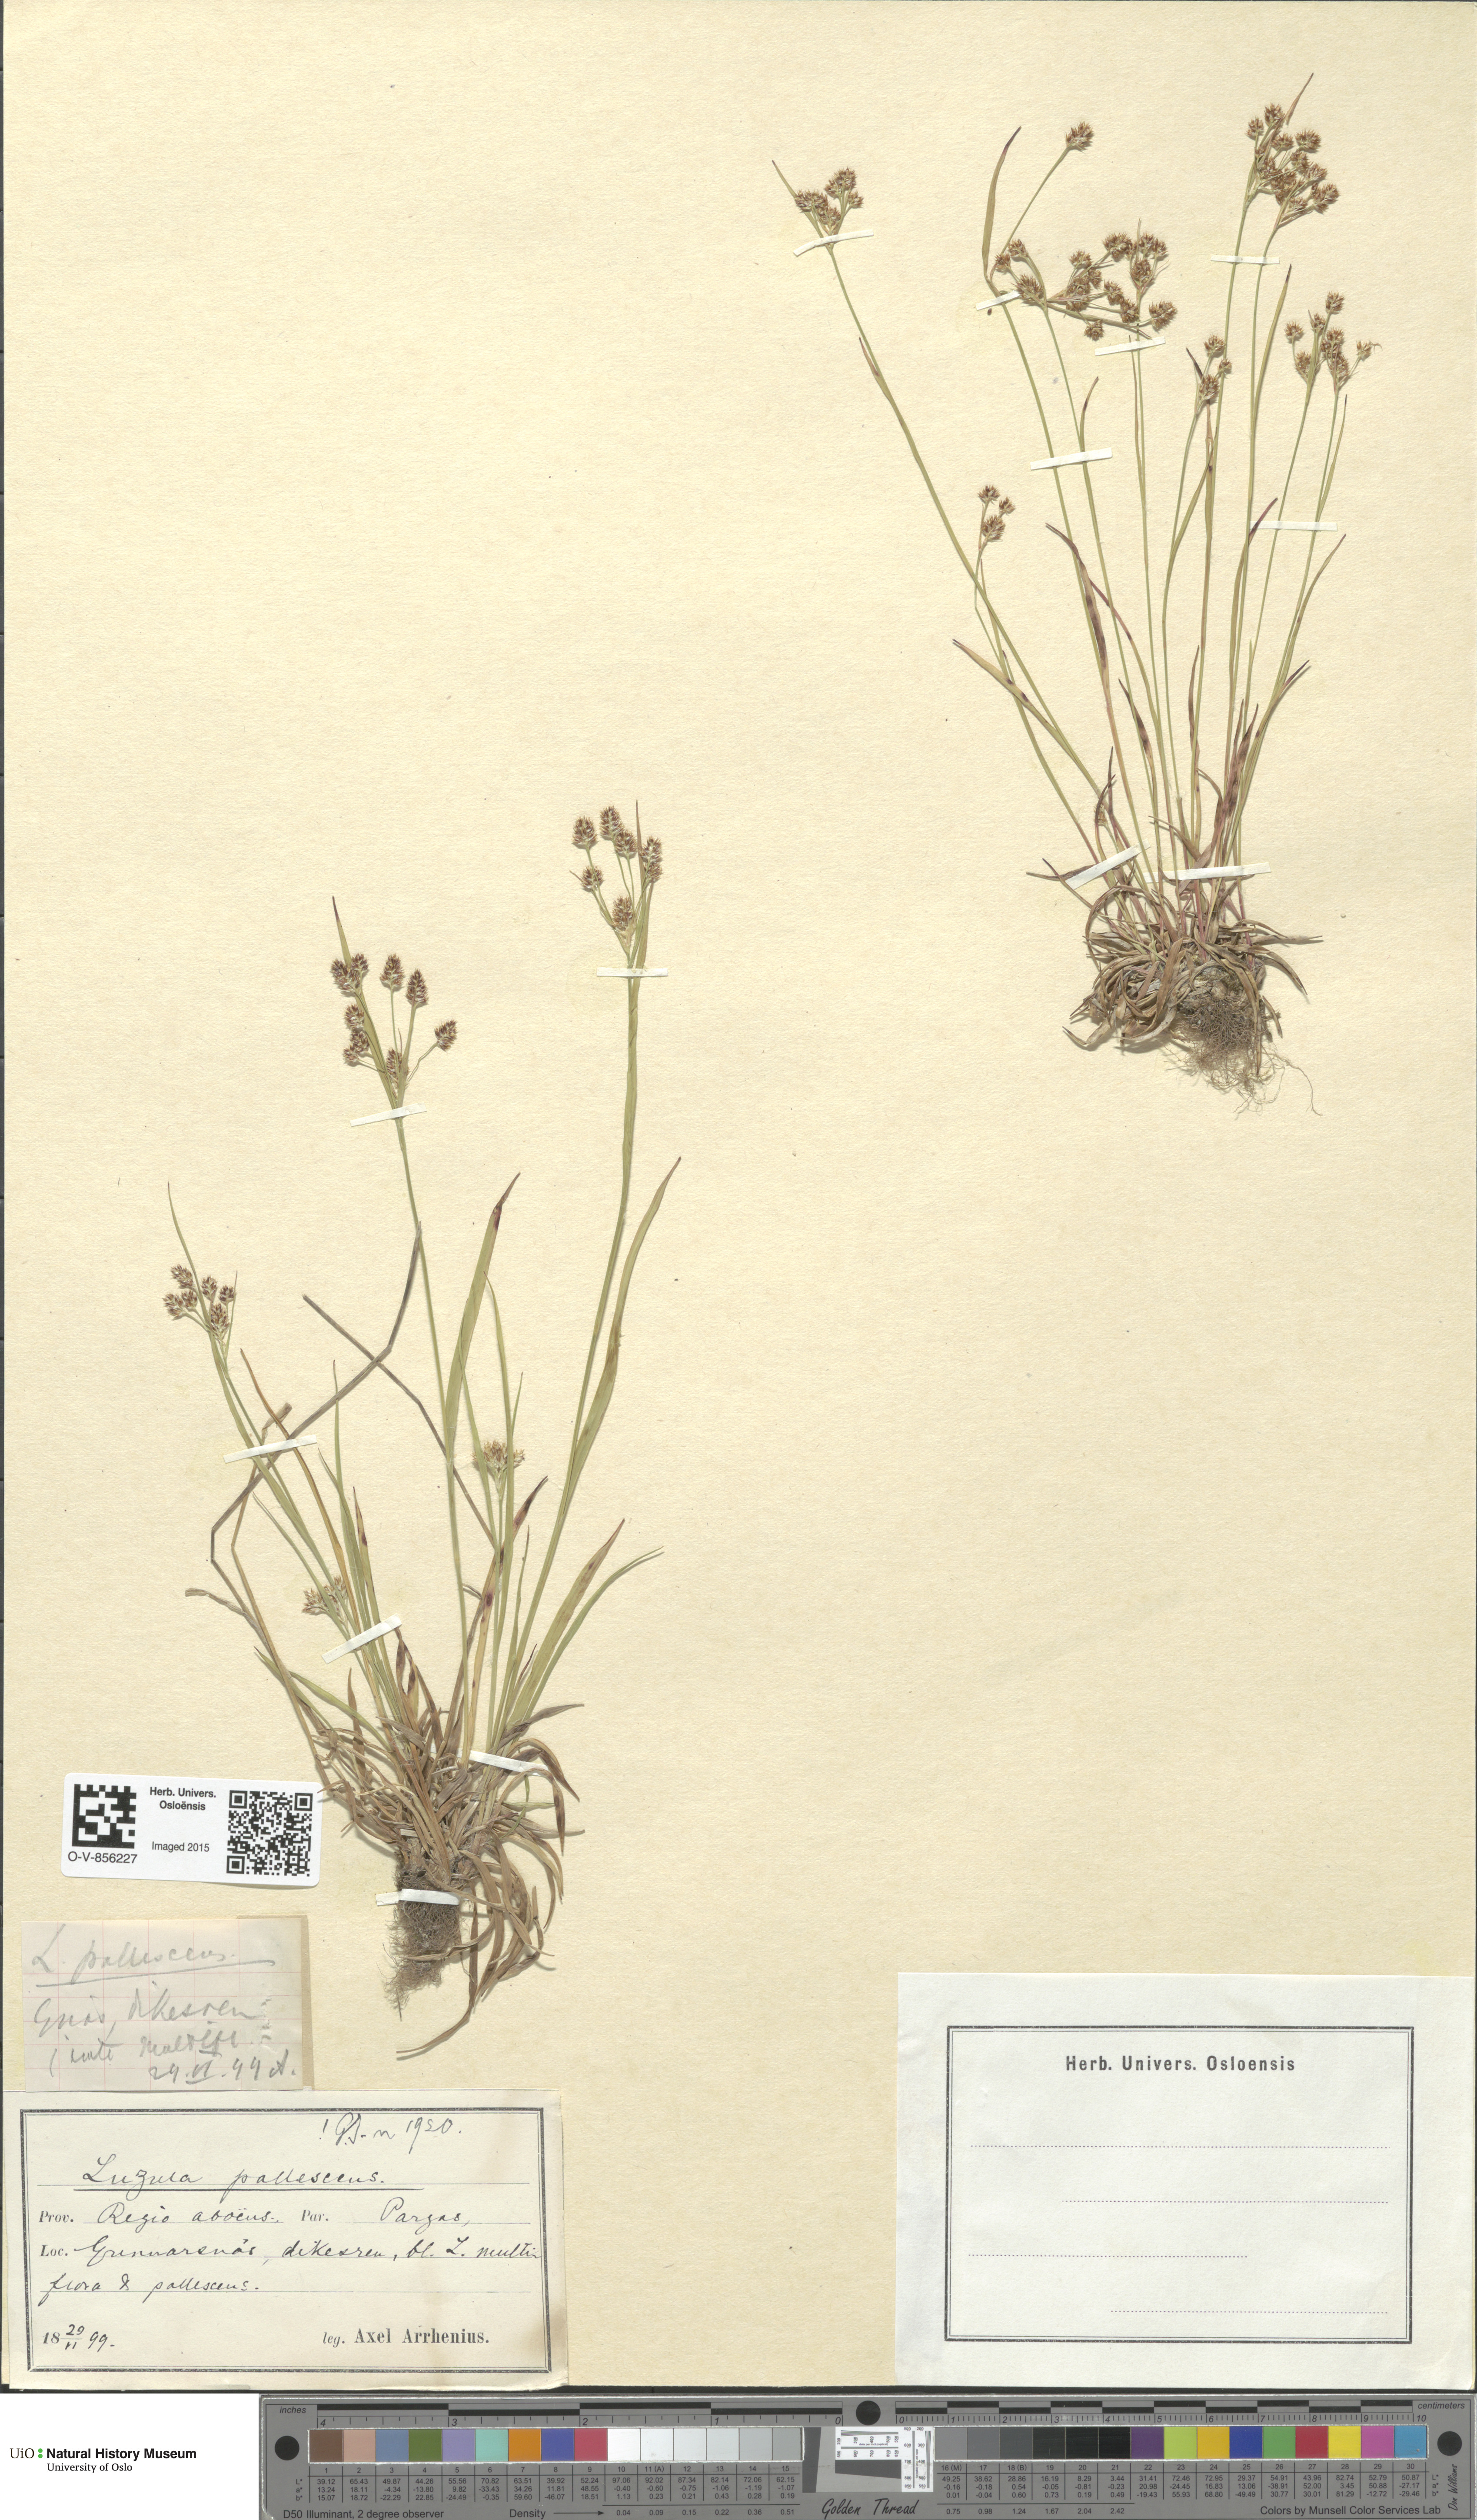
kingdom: Plantae
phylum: Tracheophyta
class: Liliopsida
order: Poales
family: Juncaceae
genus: Luzula
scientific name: Luzula pallescens
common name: Fen wood-rush
